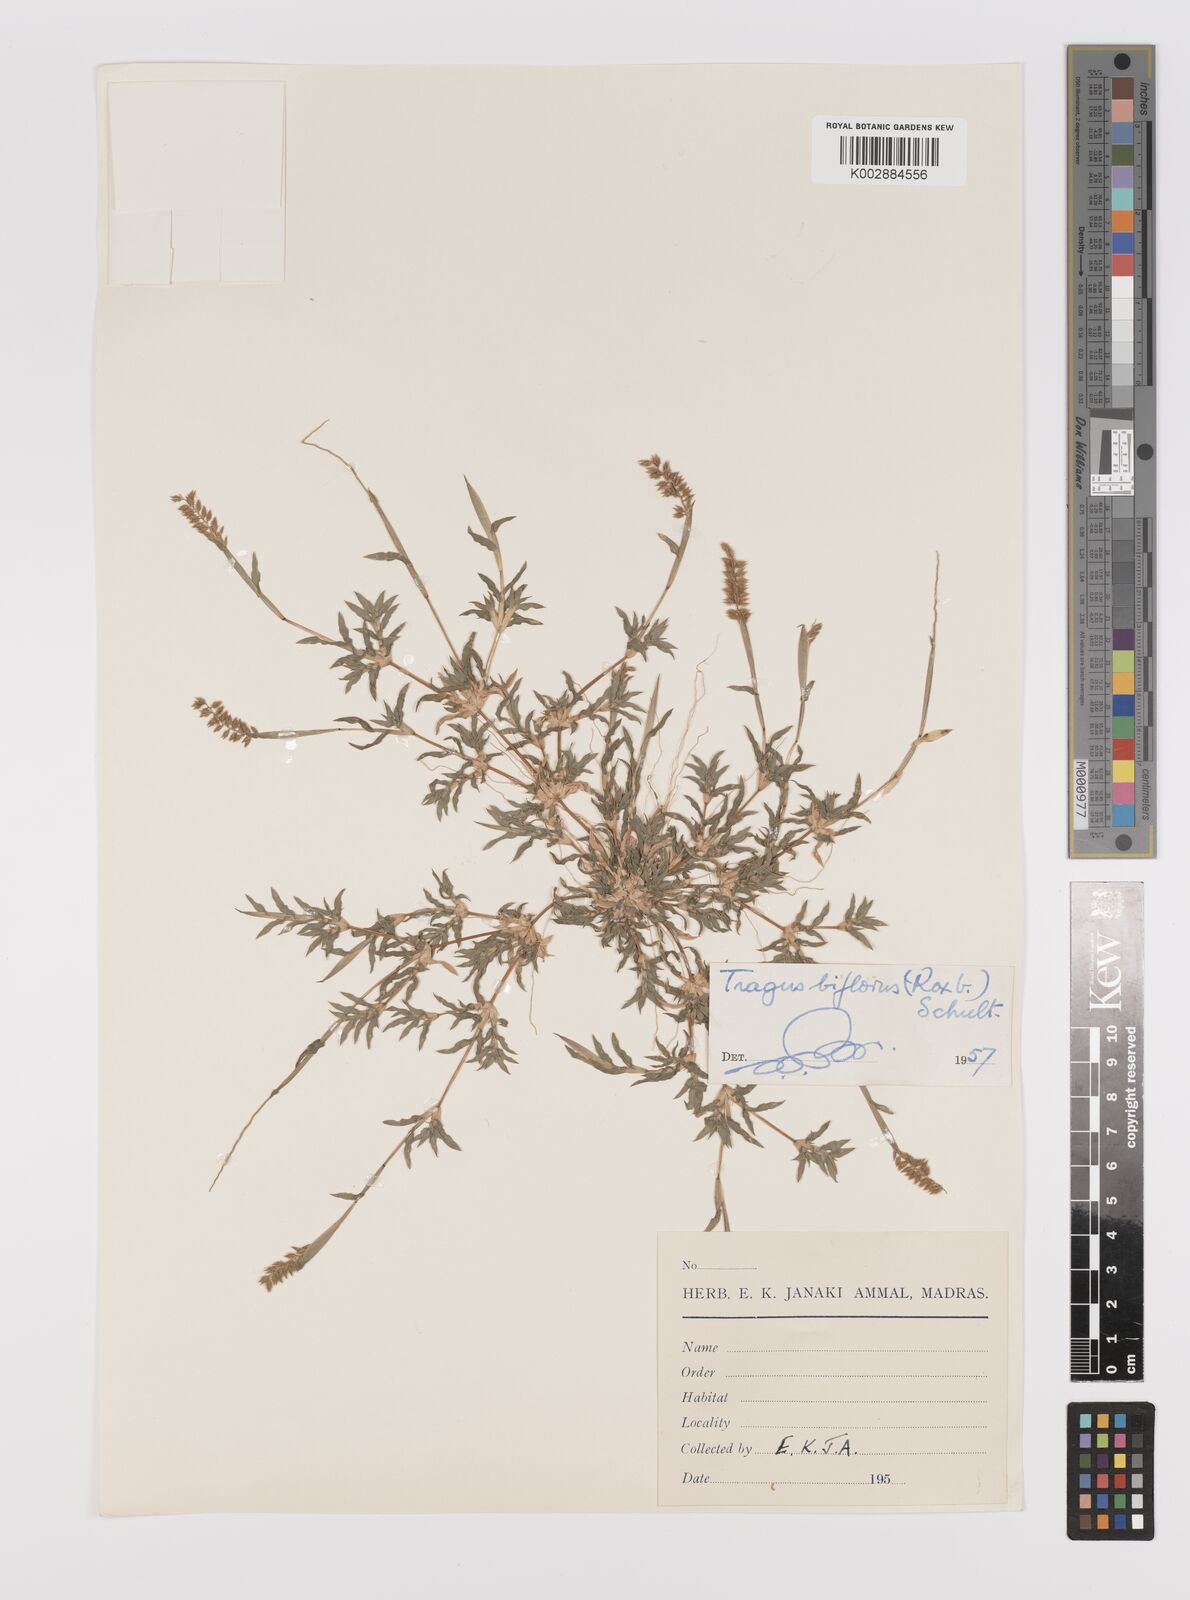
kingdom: Plantae
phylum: Tracheophyta
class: Liliopsida
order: Poales
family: Poaceae
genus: Tragus
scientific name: Tragus mongolorum
